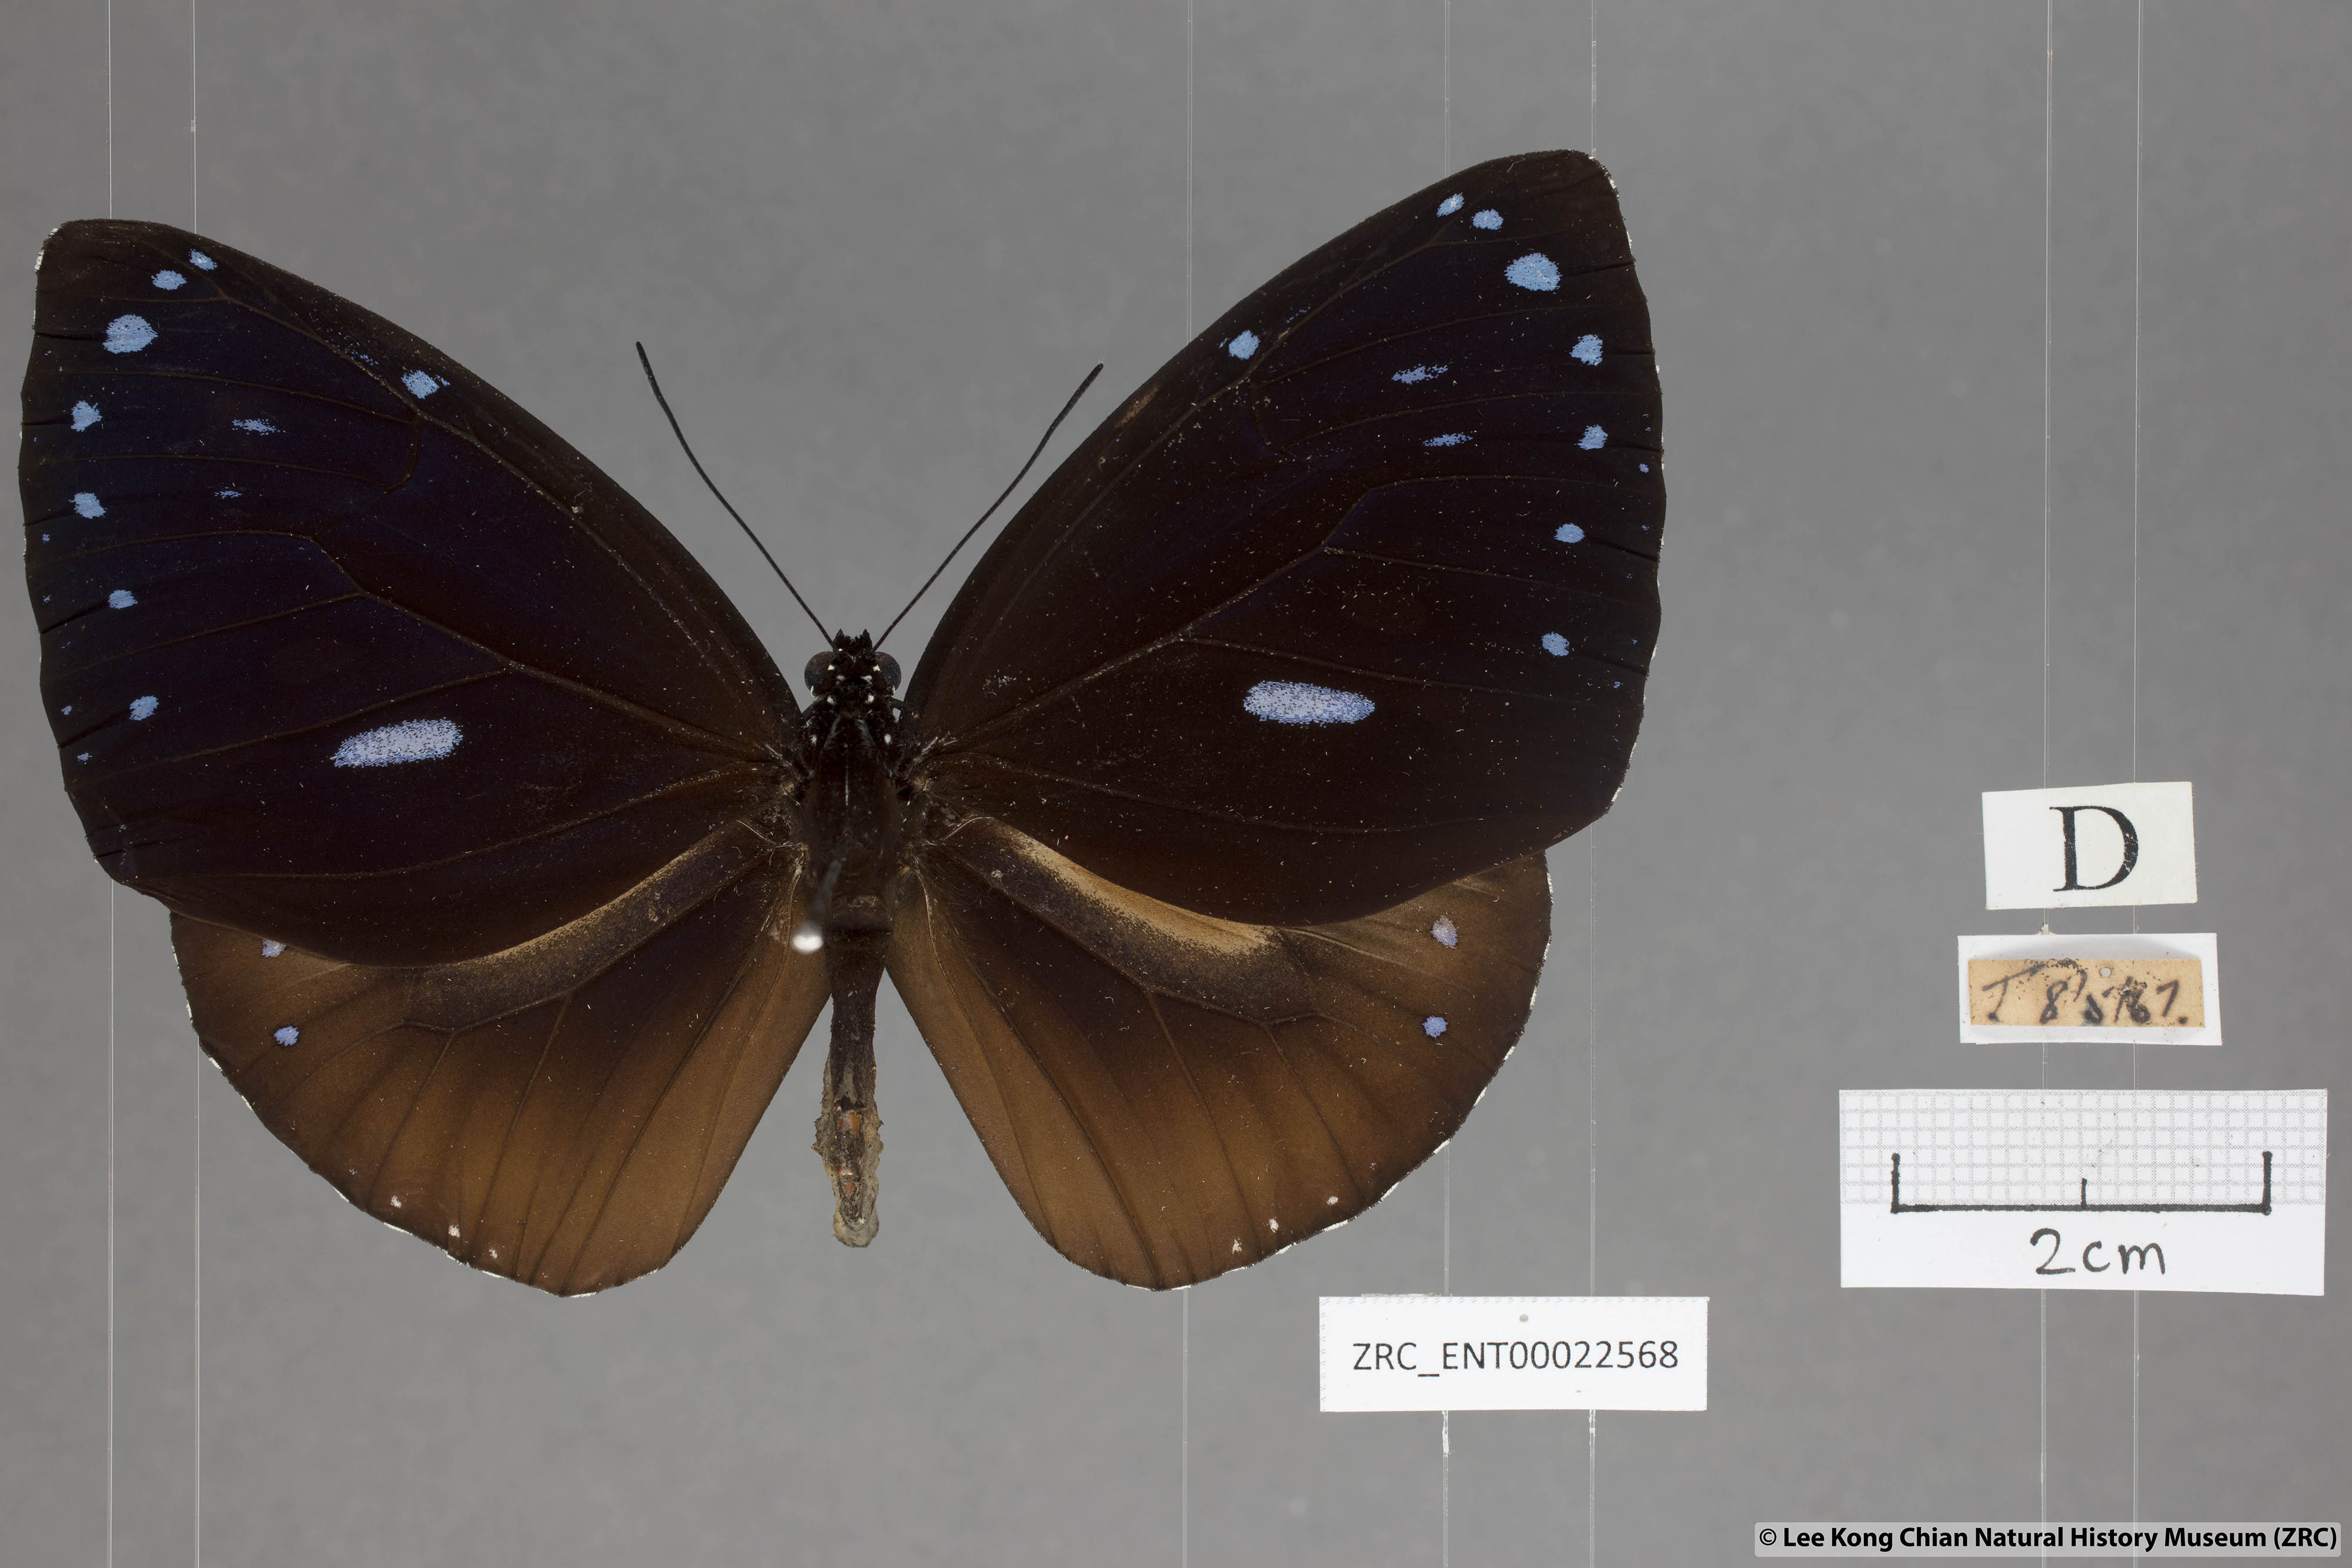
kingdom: Animalia
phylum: Arthropoda
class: Insecta
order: Lepidoptera
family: Nymphalidae
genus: Euploea
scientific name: Euploea eunice
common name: Blue-banded king crow butterfly
